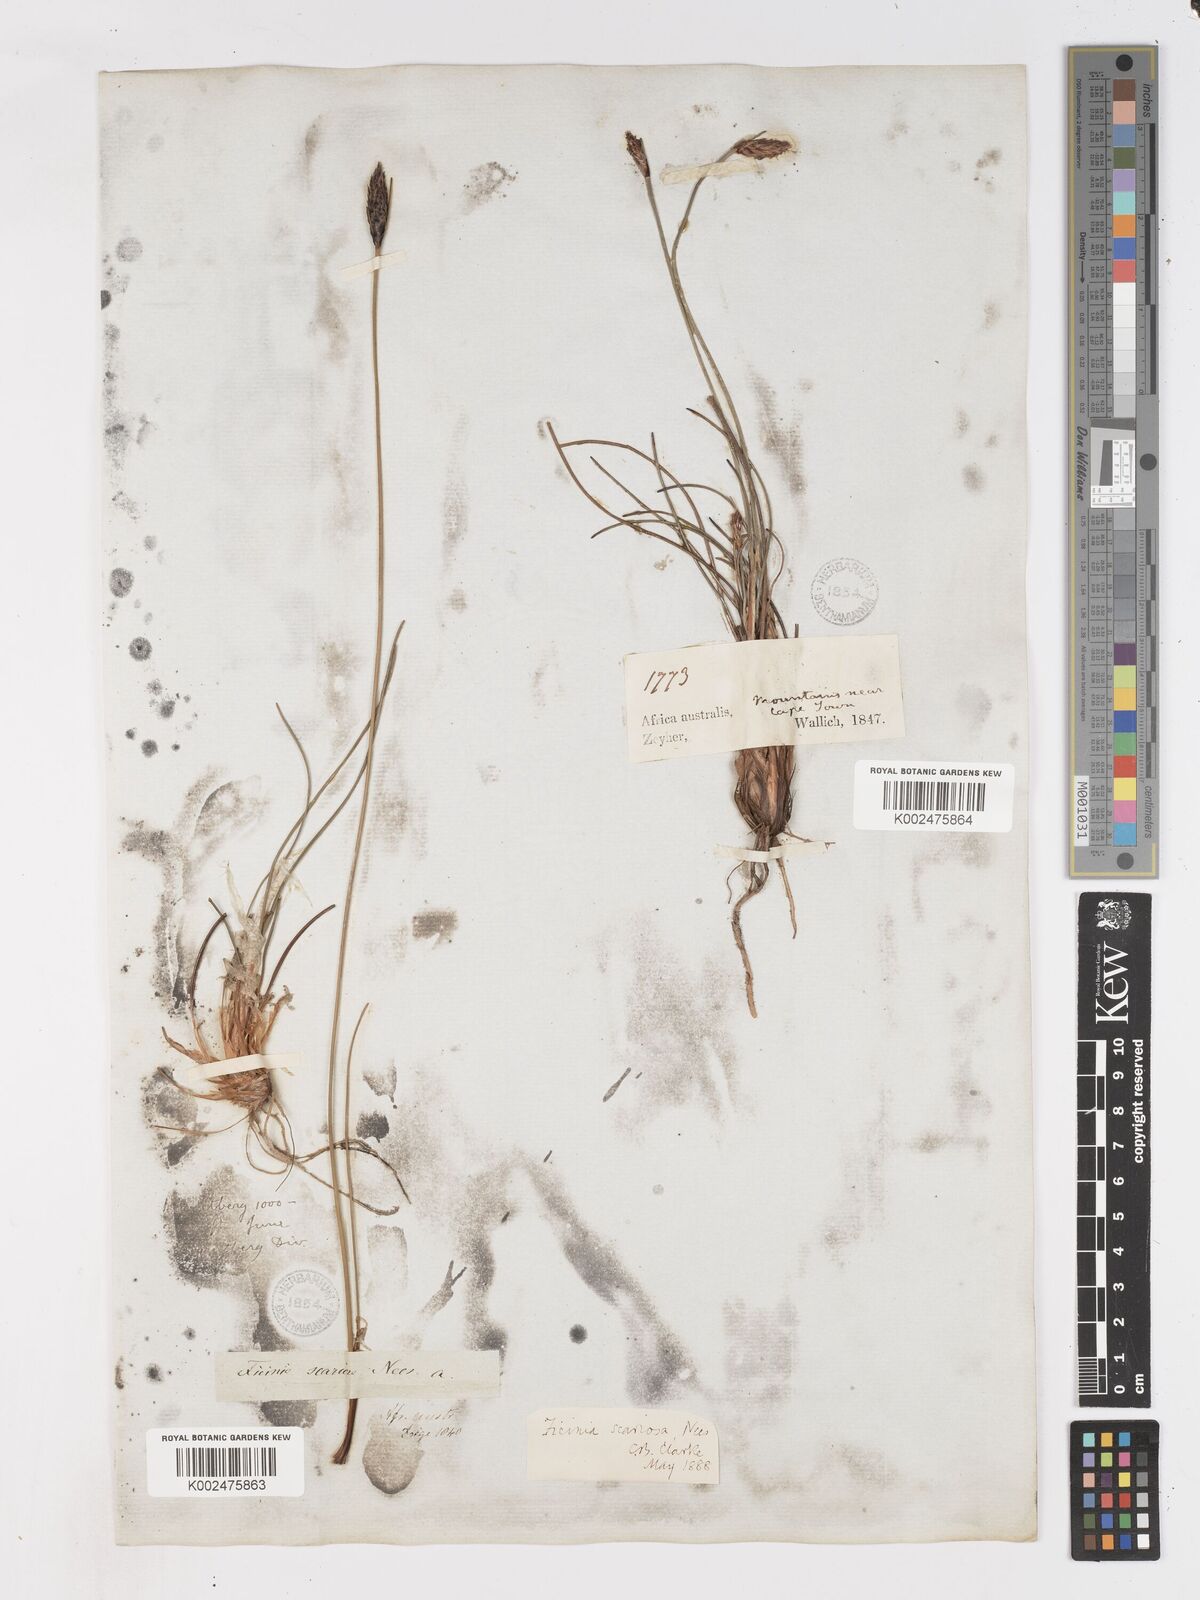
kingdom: Plantae
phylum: Tracheophyta
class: Liliopsida
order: Poales
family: Cyperaceae
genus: Ficinia
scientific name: Ficinia deusta
